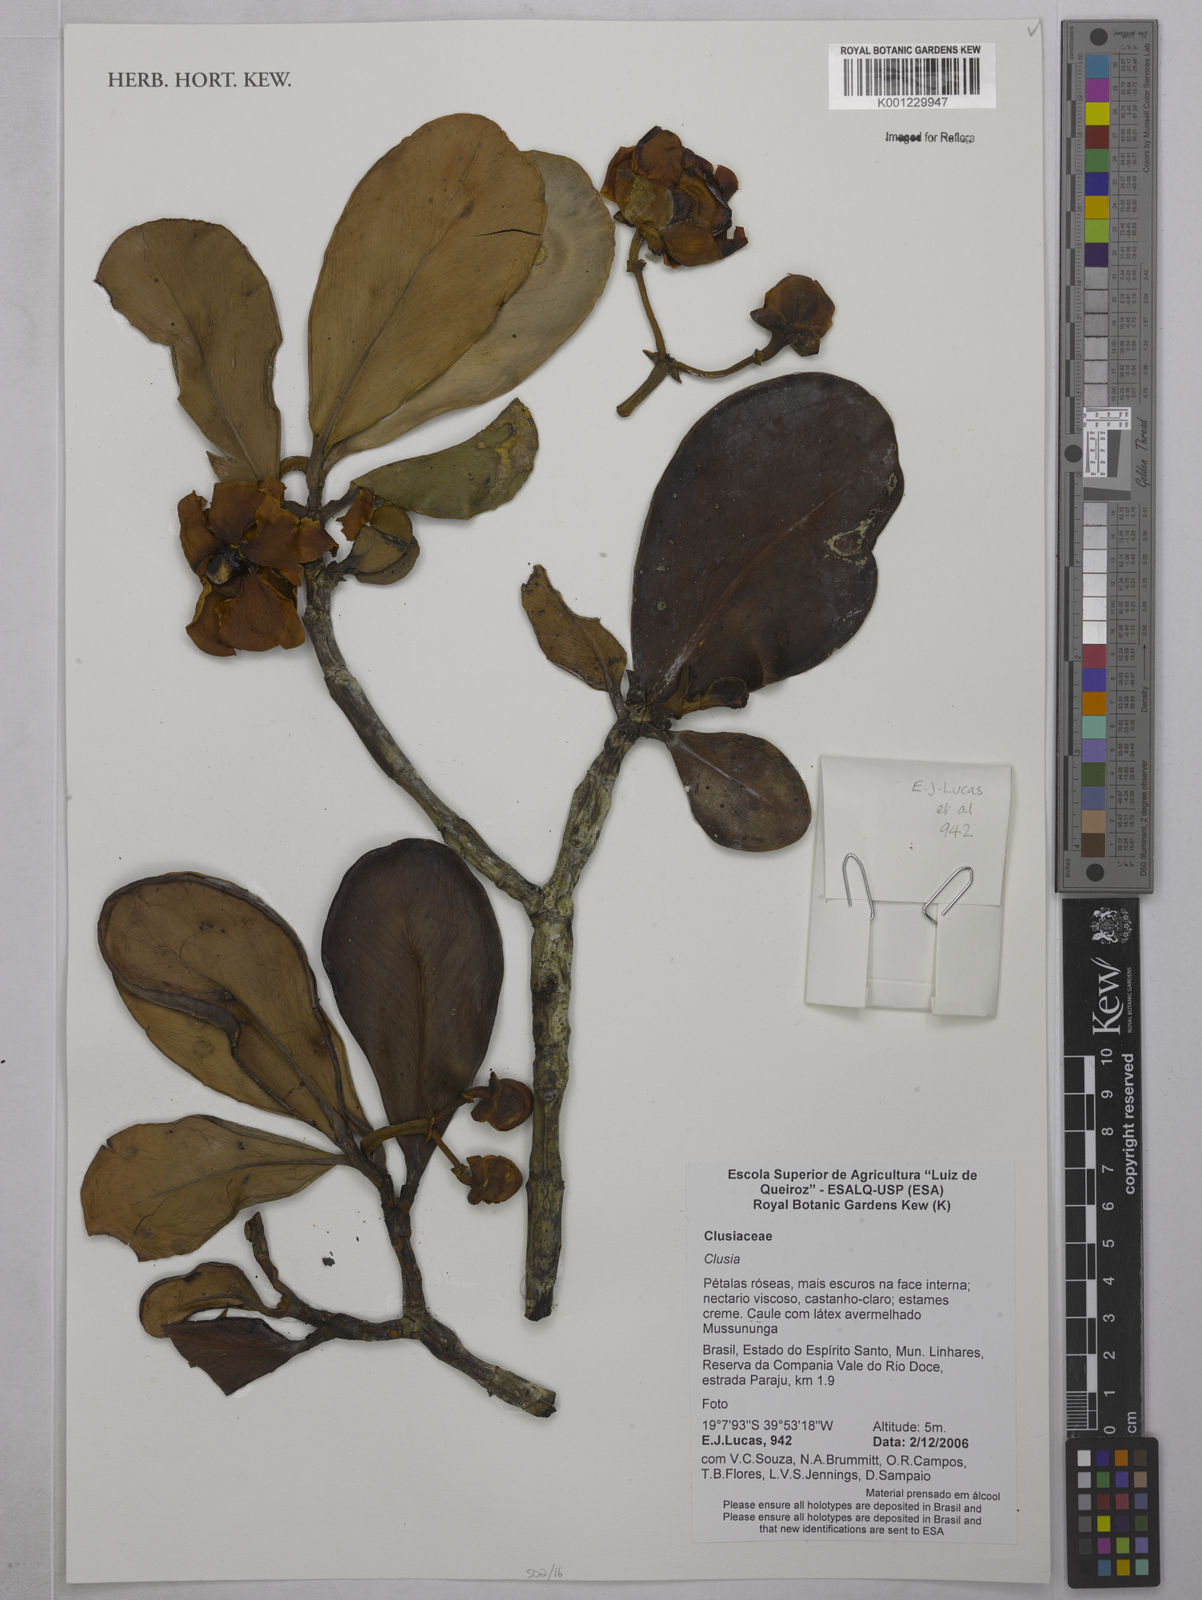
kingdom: Plantae
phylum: Tracheophyta
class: Magnoliopsida
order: Malpighiales
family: Clusiaceae
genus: Clusia
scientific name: Clusia
